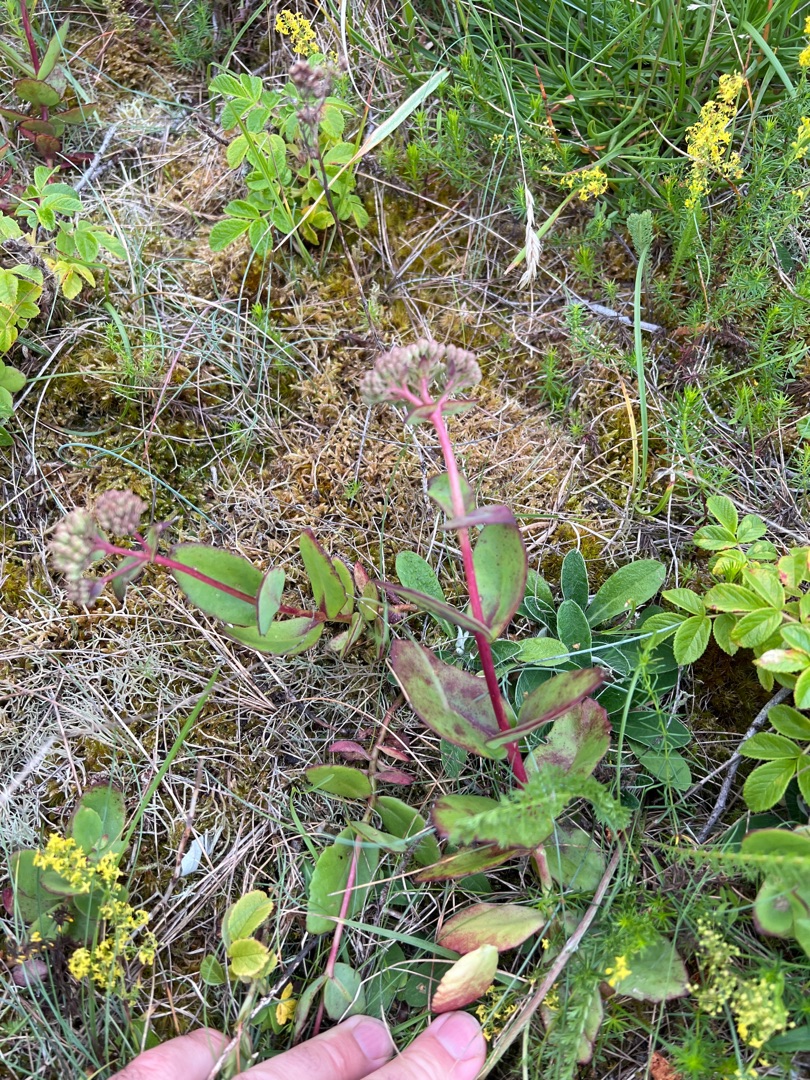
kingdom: Plantae
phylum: Tracheophyta
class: Magnoliopsida
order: Saxifragales
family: Crassulaceae
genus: Hylotelephium
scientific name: Hylotelephium maximum
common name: Almindelig sankthansurt
